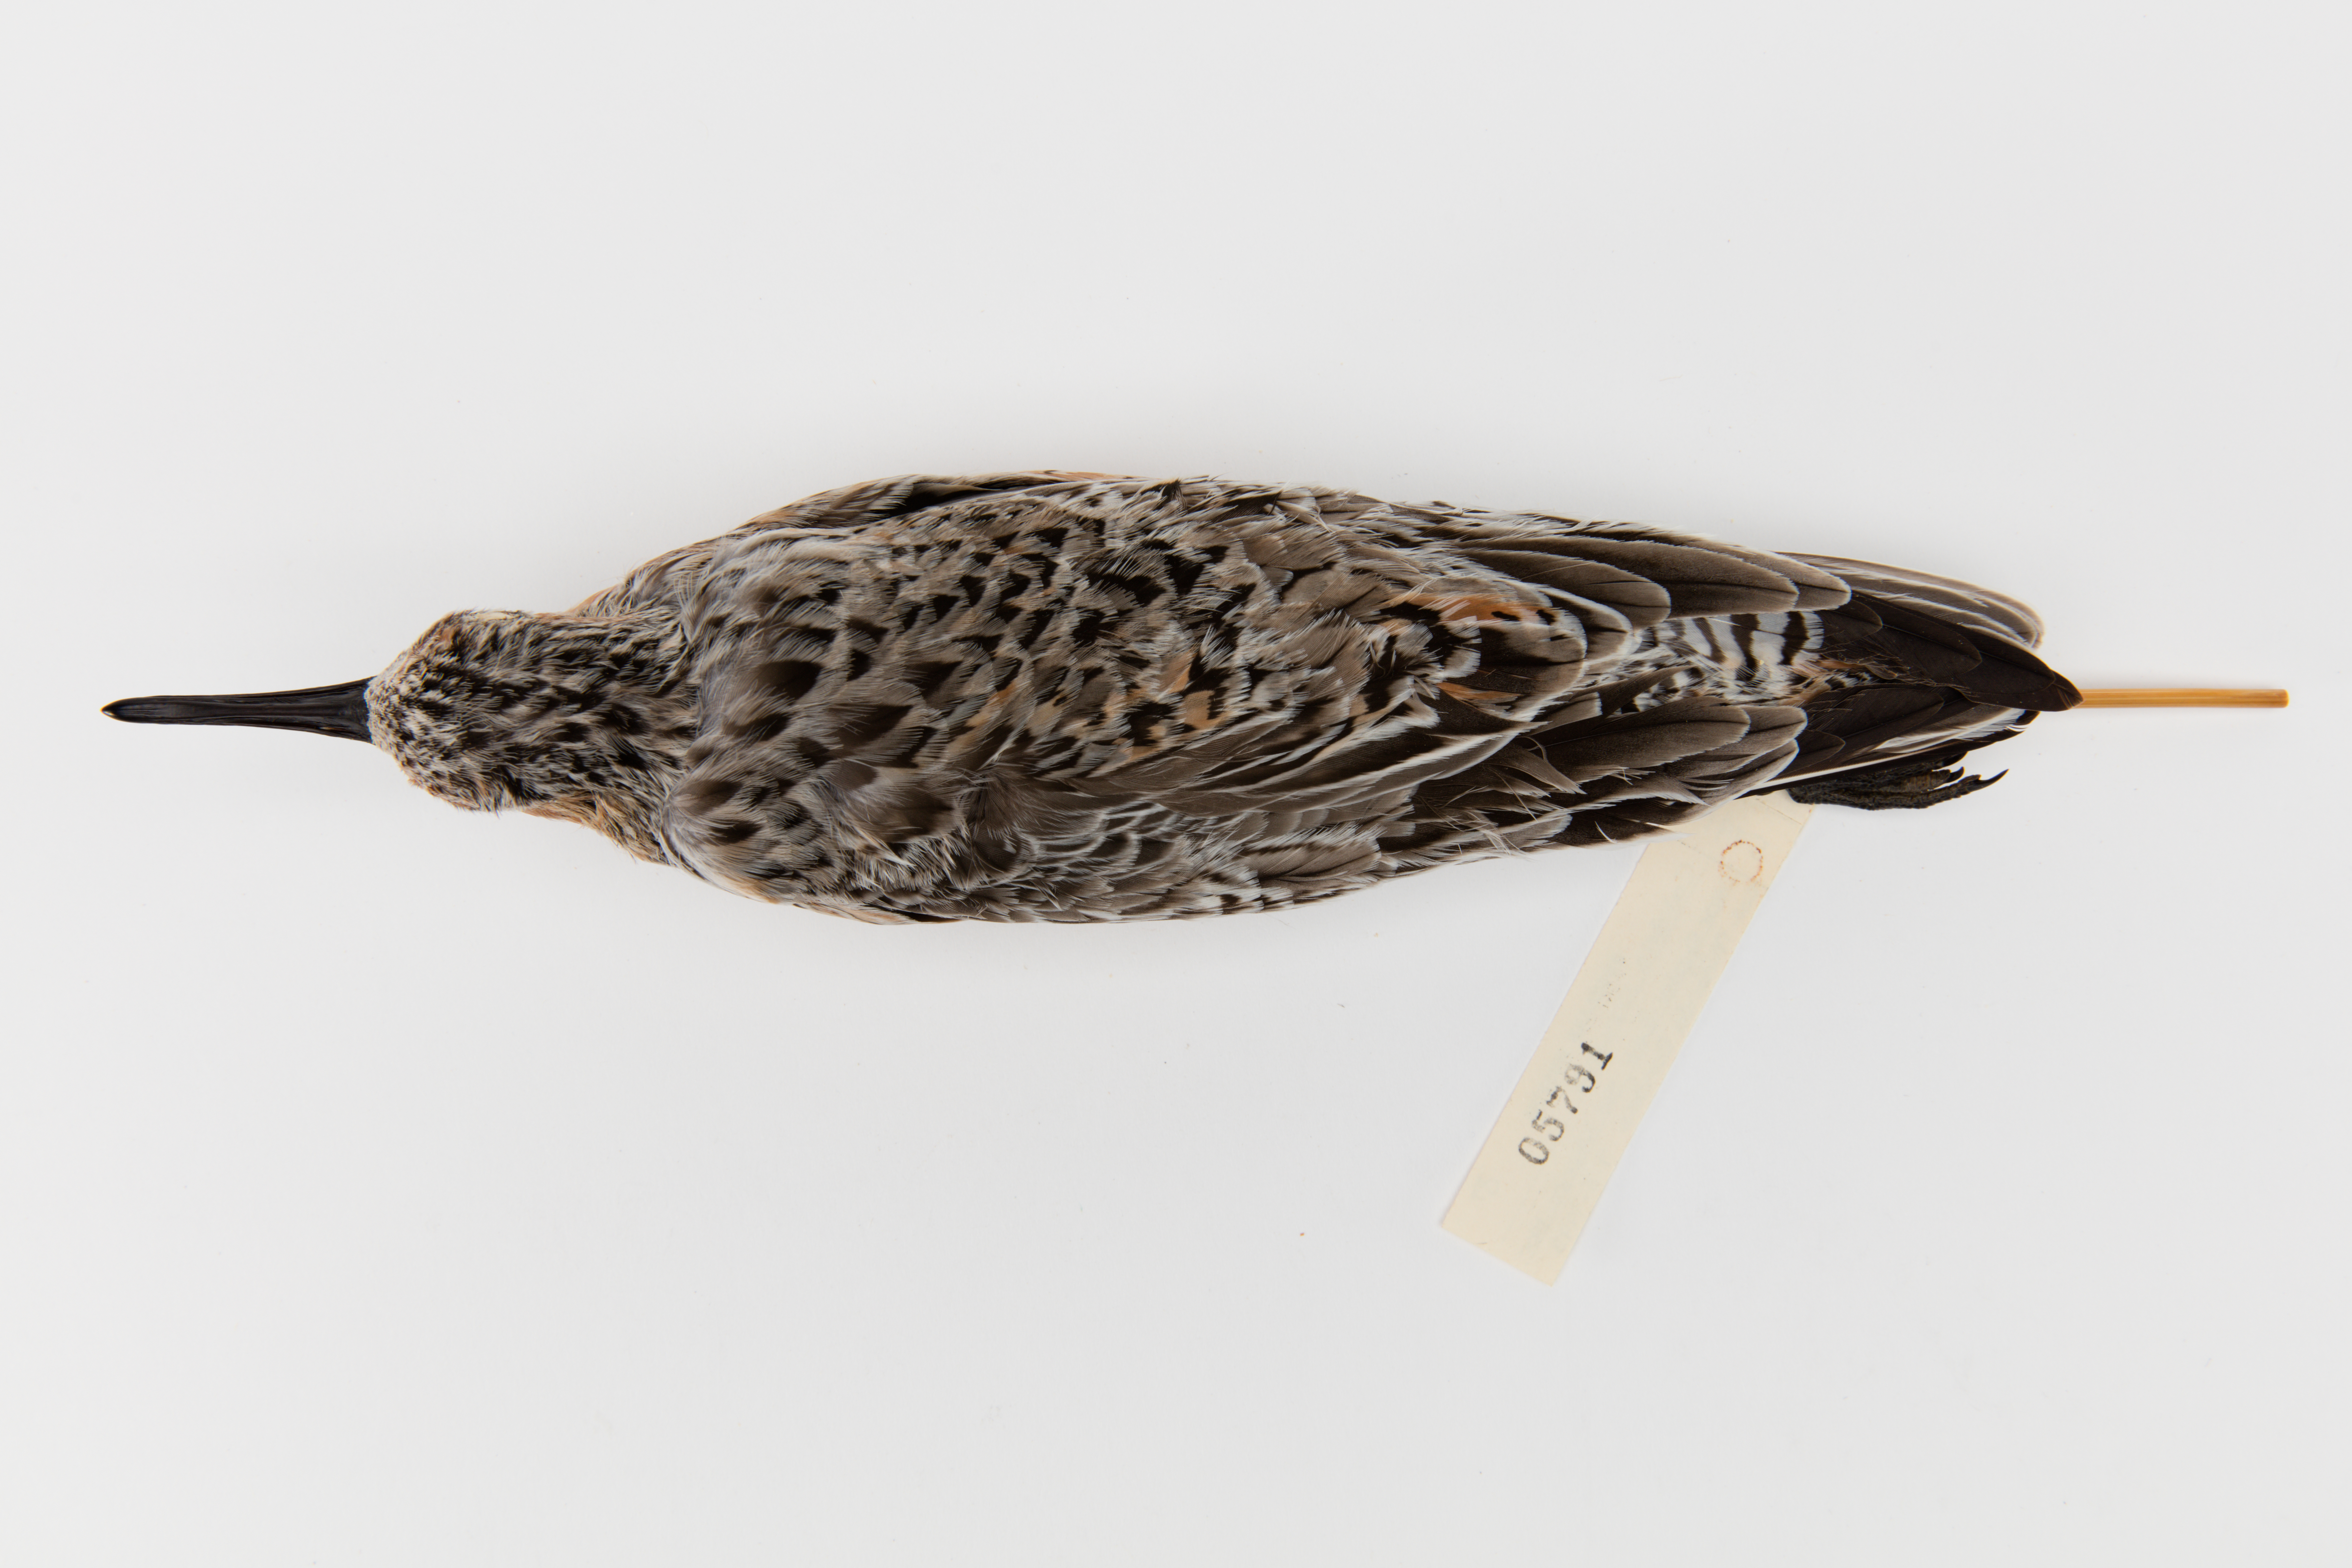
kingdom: Animalia
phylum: Chordata
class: Aves
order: Charadriiformes
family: Scolopacidae
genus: Calidris
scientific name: Calidris canutus
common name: Red knot
